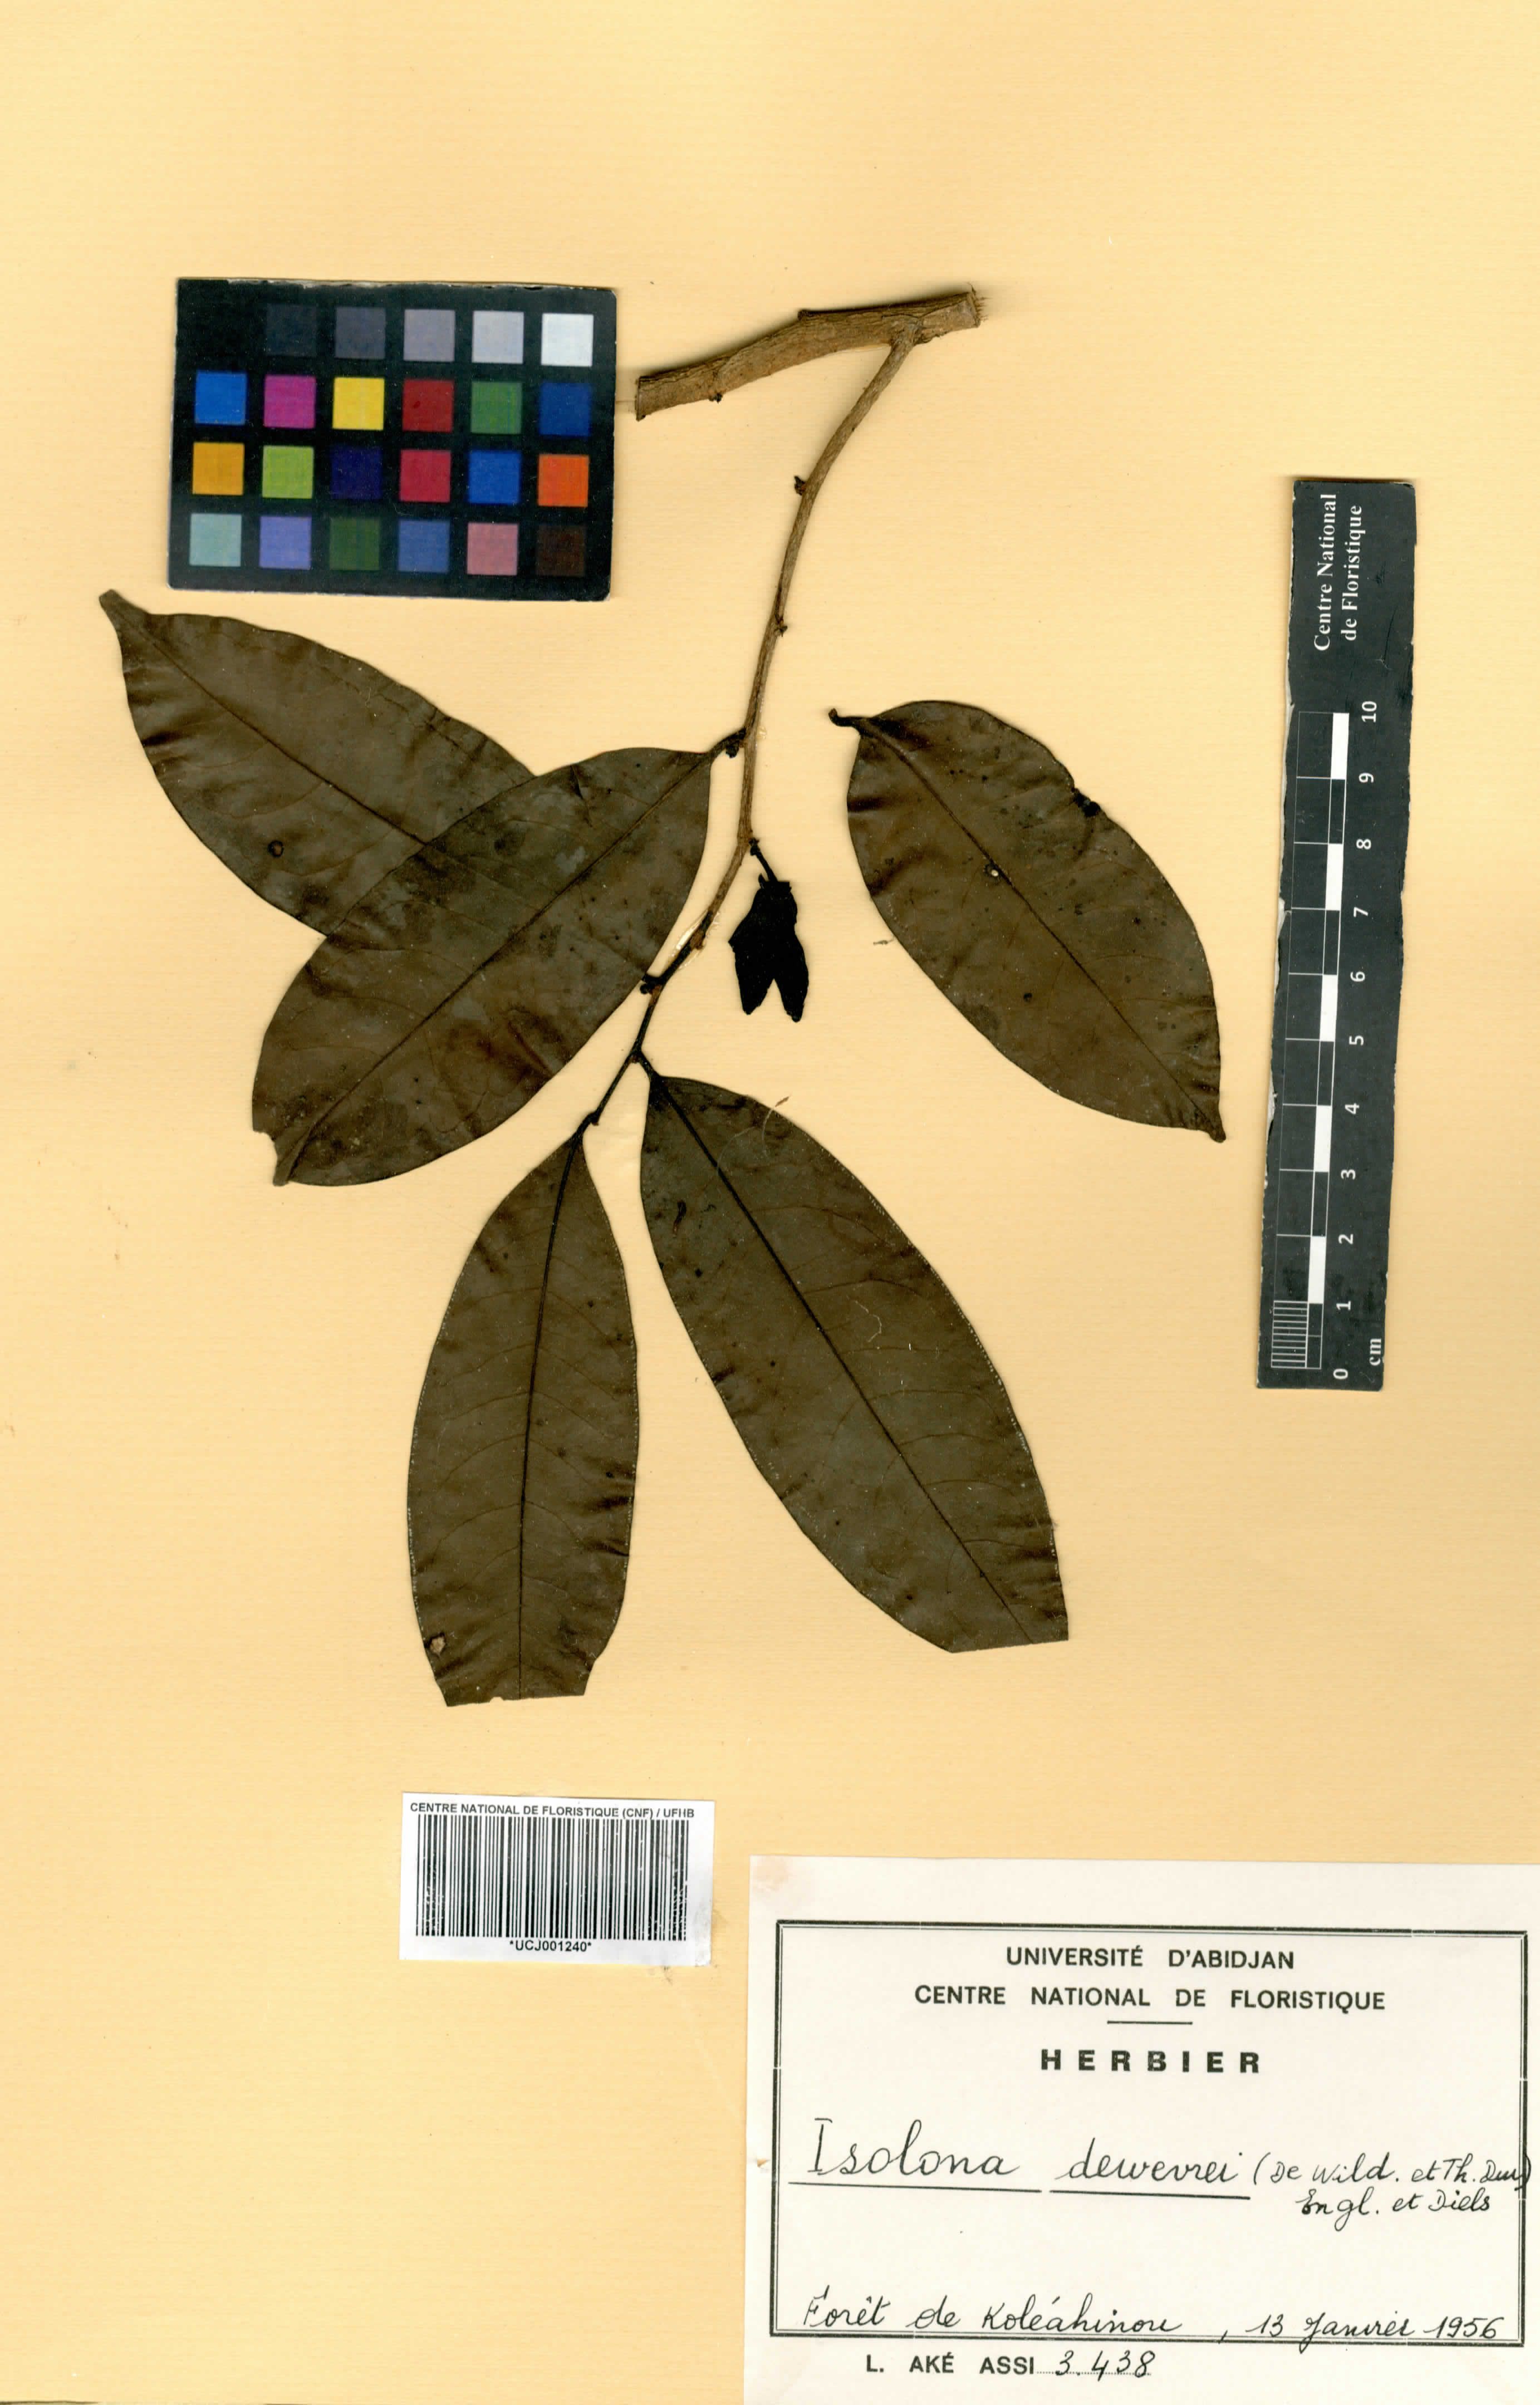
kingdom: Plantae
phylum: Tracheophyta
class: Magnoliopsida
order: Magnoliales
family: Annonaceae
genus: Isolona
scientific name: Isolona dewevrei
